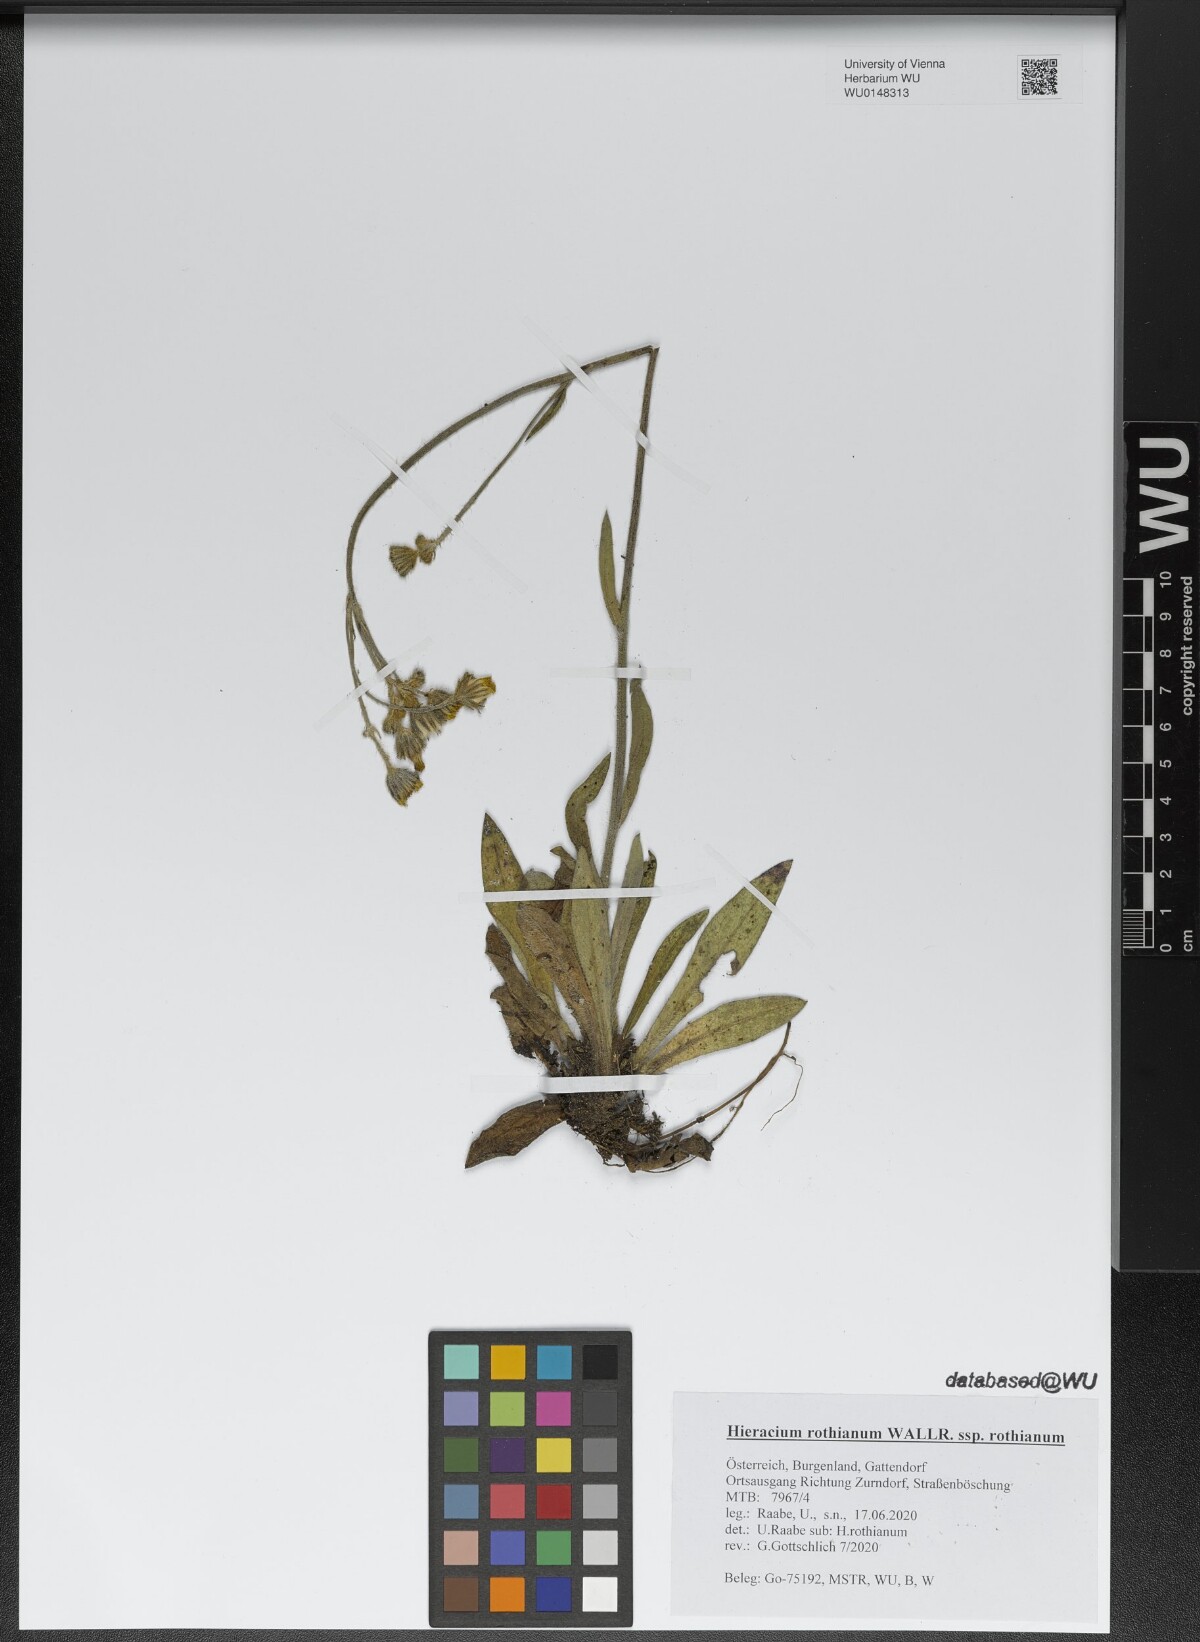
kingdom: Plantae
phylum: Tracheophyta
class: Magnoliopsida
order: Asterales
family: Asteraceae
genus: Pilosella
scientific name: Pilosella rothiana
